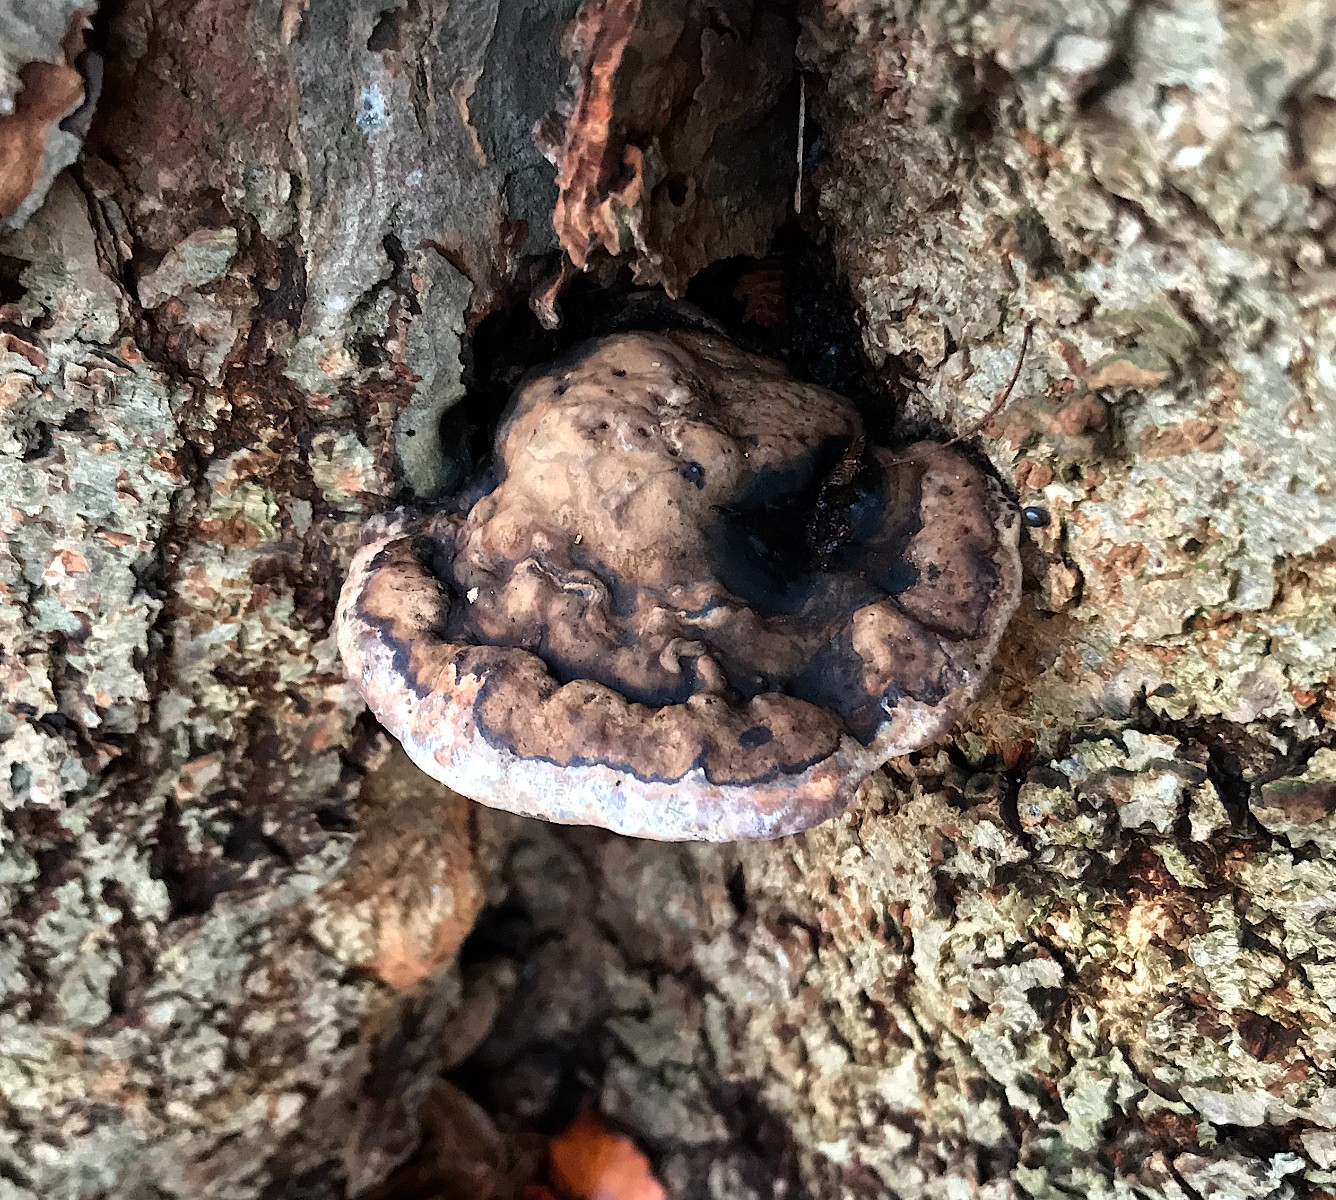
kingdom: Fungi
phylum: Basidiomycota
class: Agaricomycetes
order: Polyporales
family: Polyporaceae
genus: Ganoderma
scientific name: Ganoderma adspersum
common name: grov lakporesvamp
